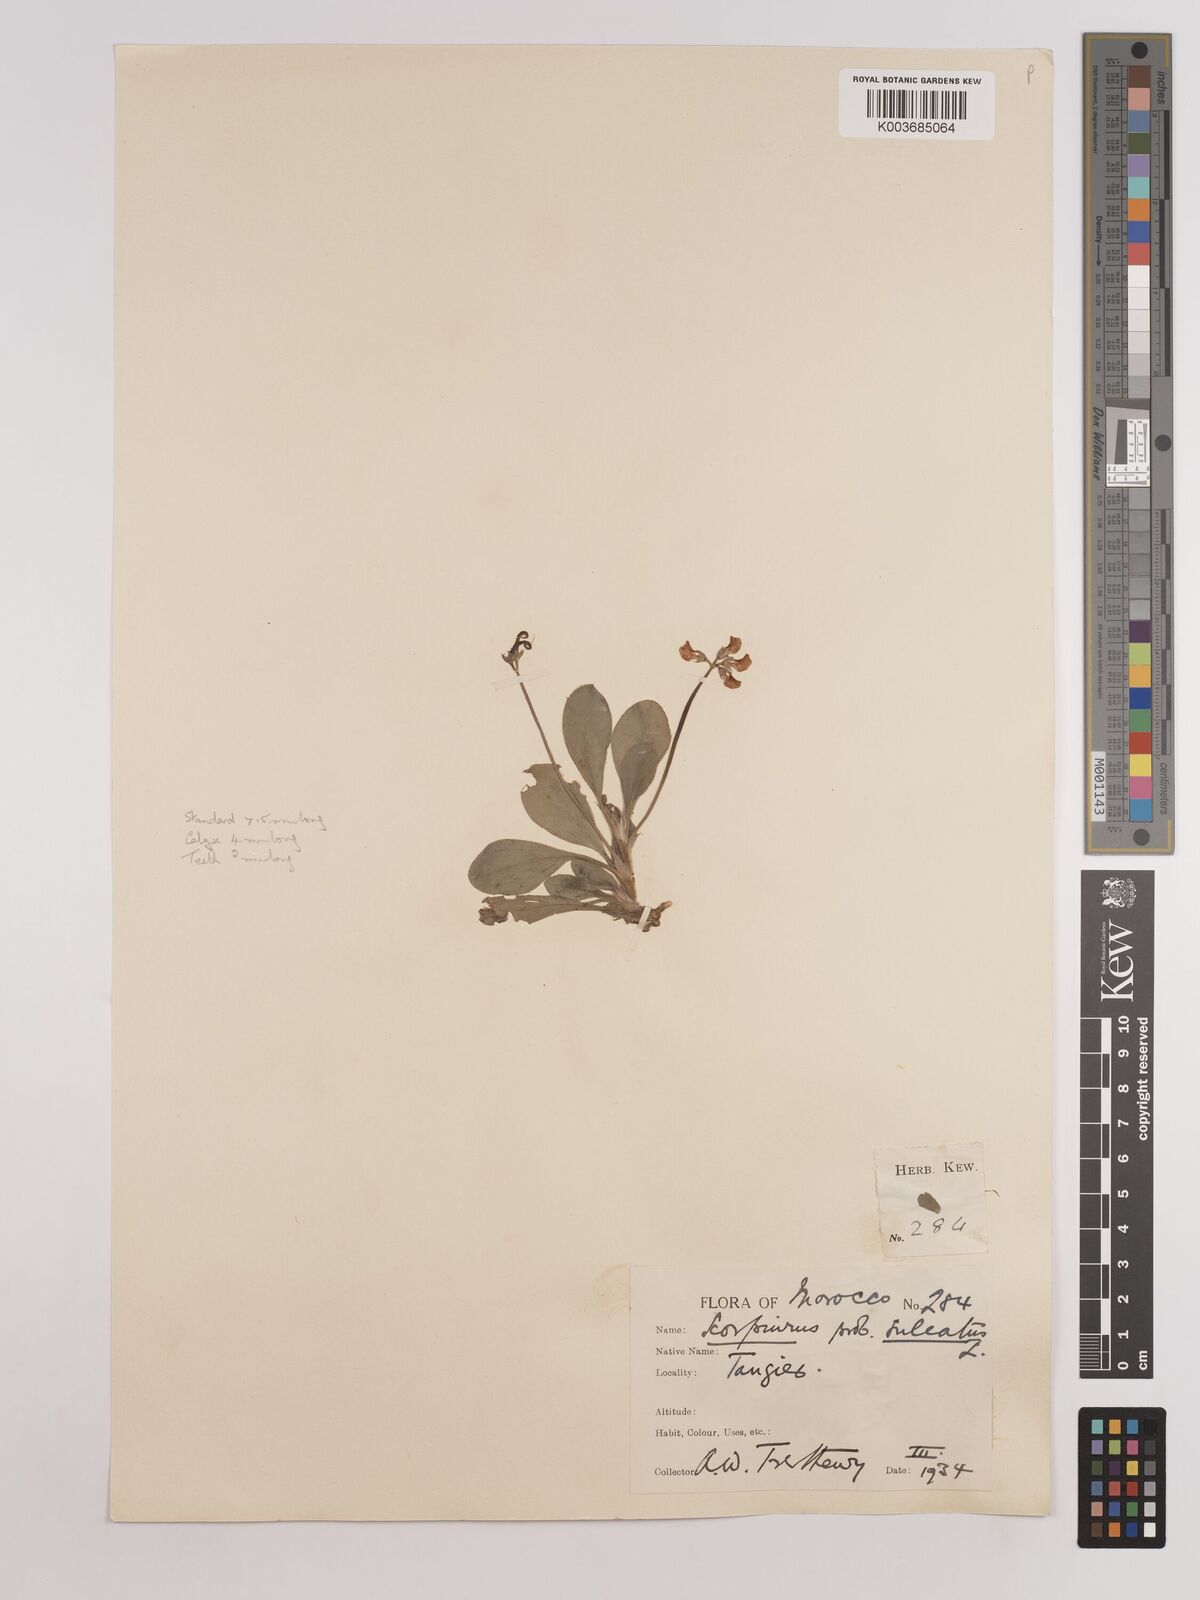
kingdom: Plantae
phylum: Tracheophyta
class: Magnoliopsida
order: Fabales
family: Fabaceae
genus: Scorpiurus
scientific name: Scorpiurus muricatus
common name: Caterpillar-plant
